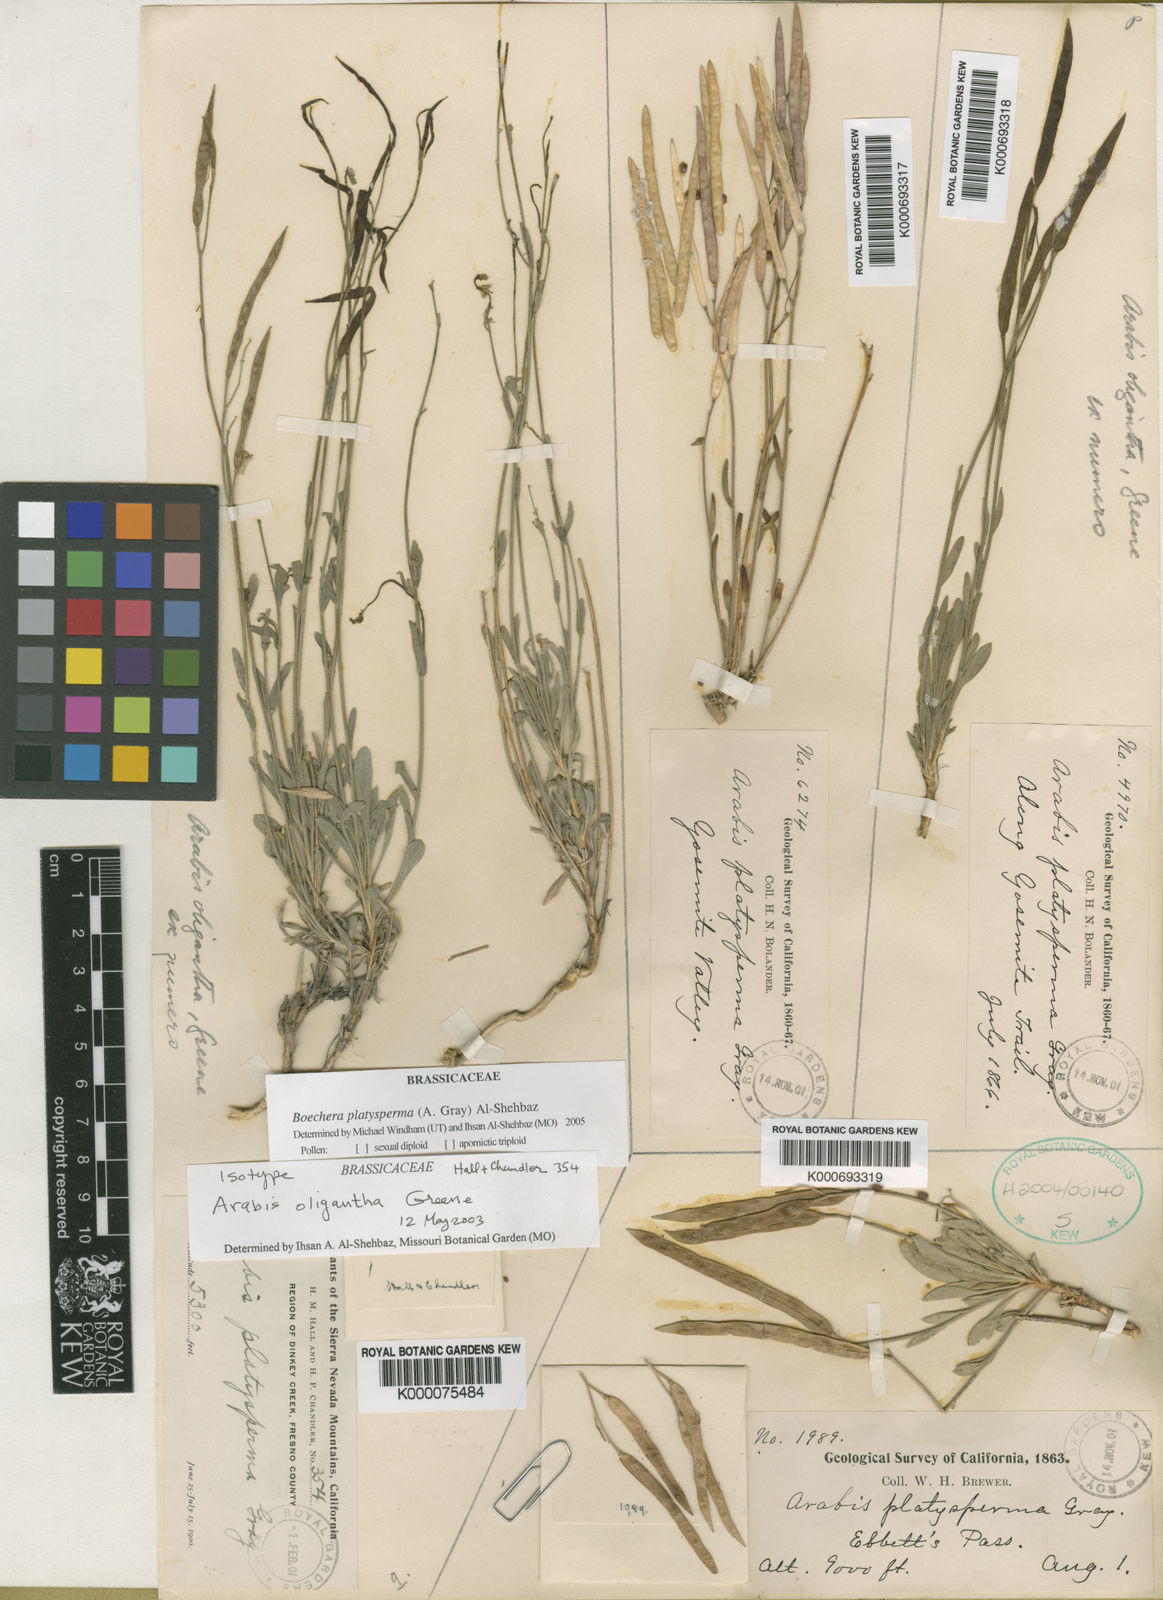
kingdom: Plantae
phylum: Tracheophyta
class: Magnoliopsida
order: Brassicales
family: Brassicaceae
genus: Boechera
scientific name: Boechera platysperma
